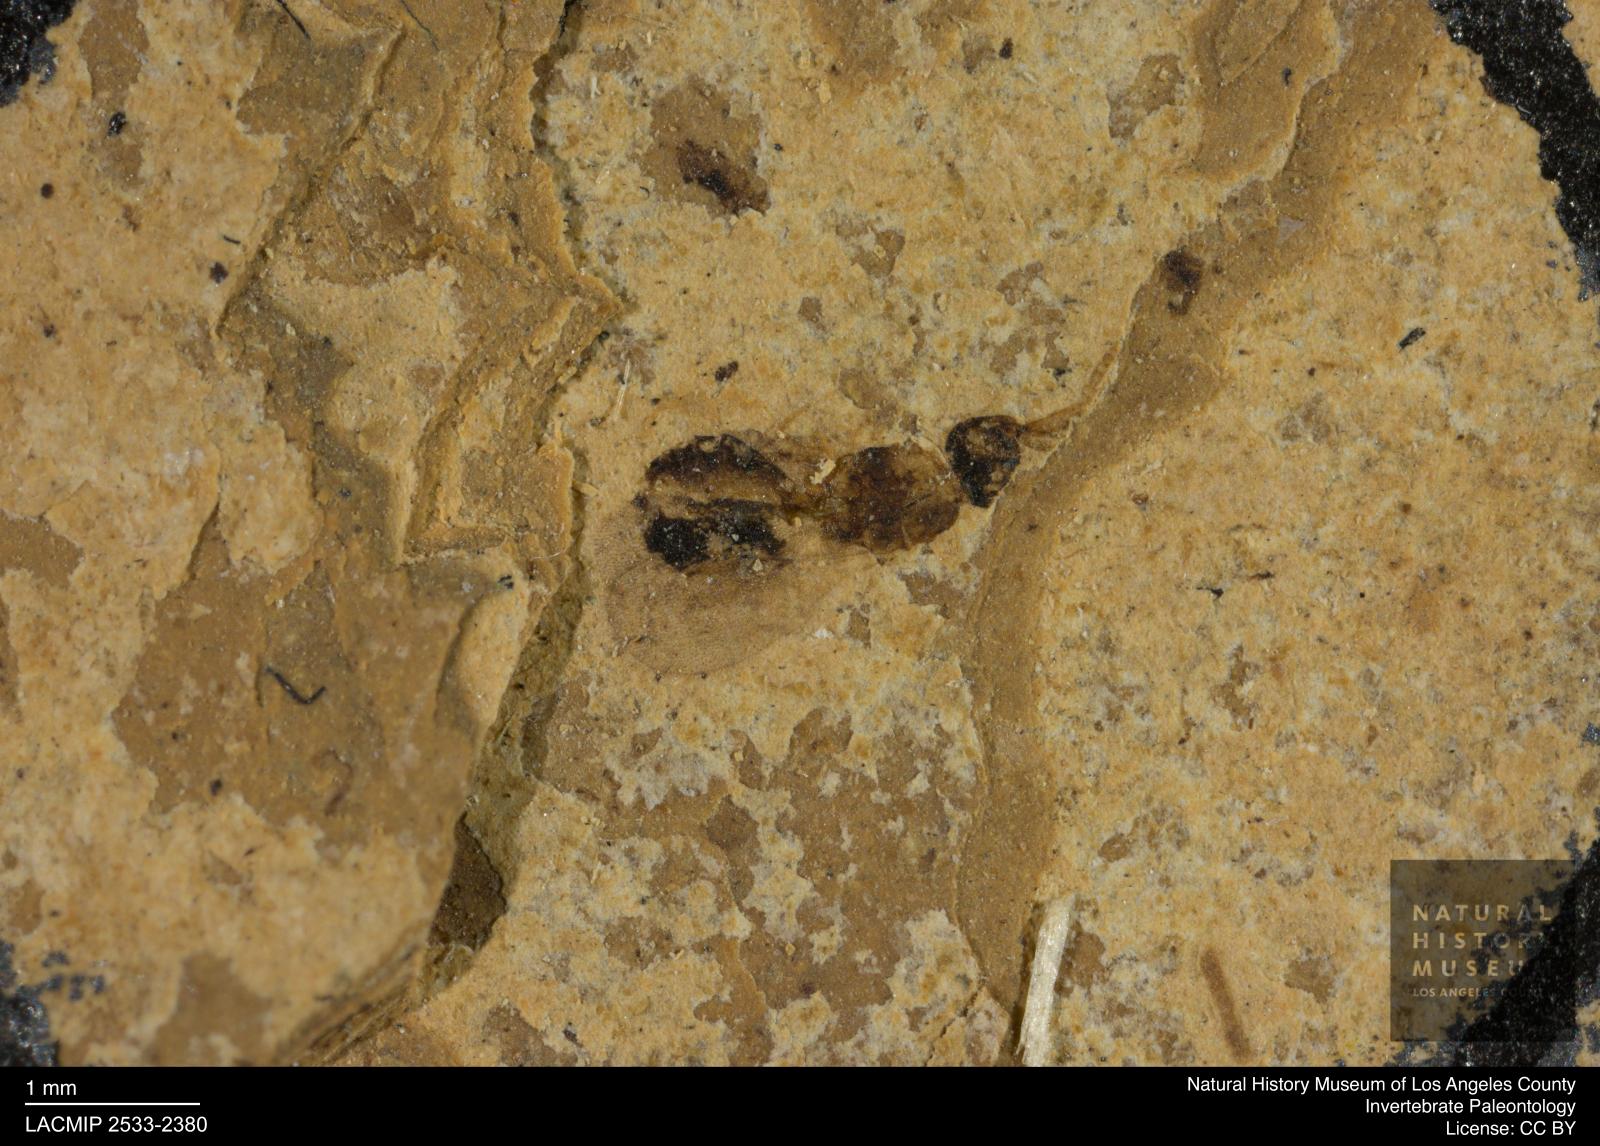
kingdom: Animalia
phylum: Arthropoda
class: Insecta
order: Hymenoptera
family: Formicidae
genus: Formica
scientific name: Formica bauckhorni
